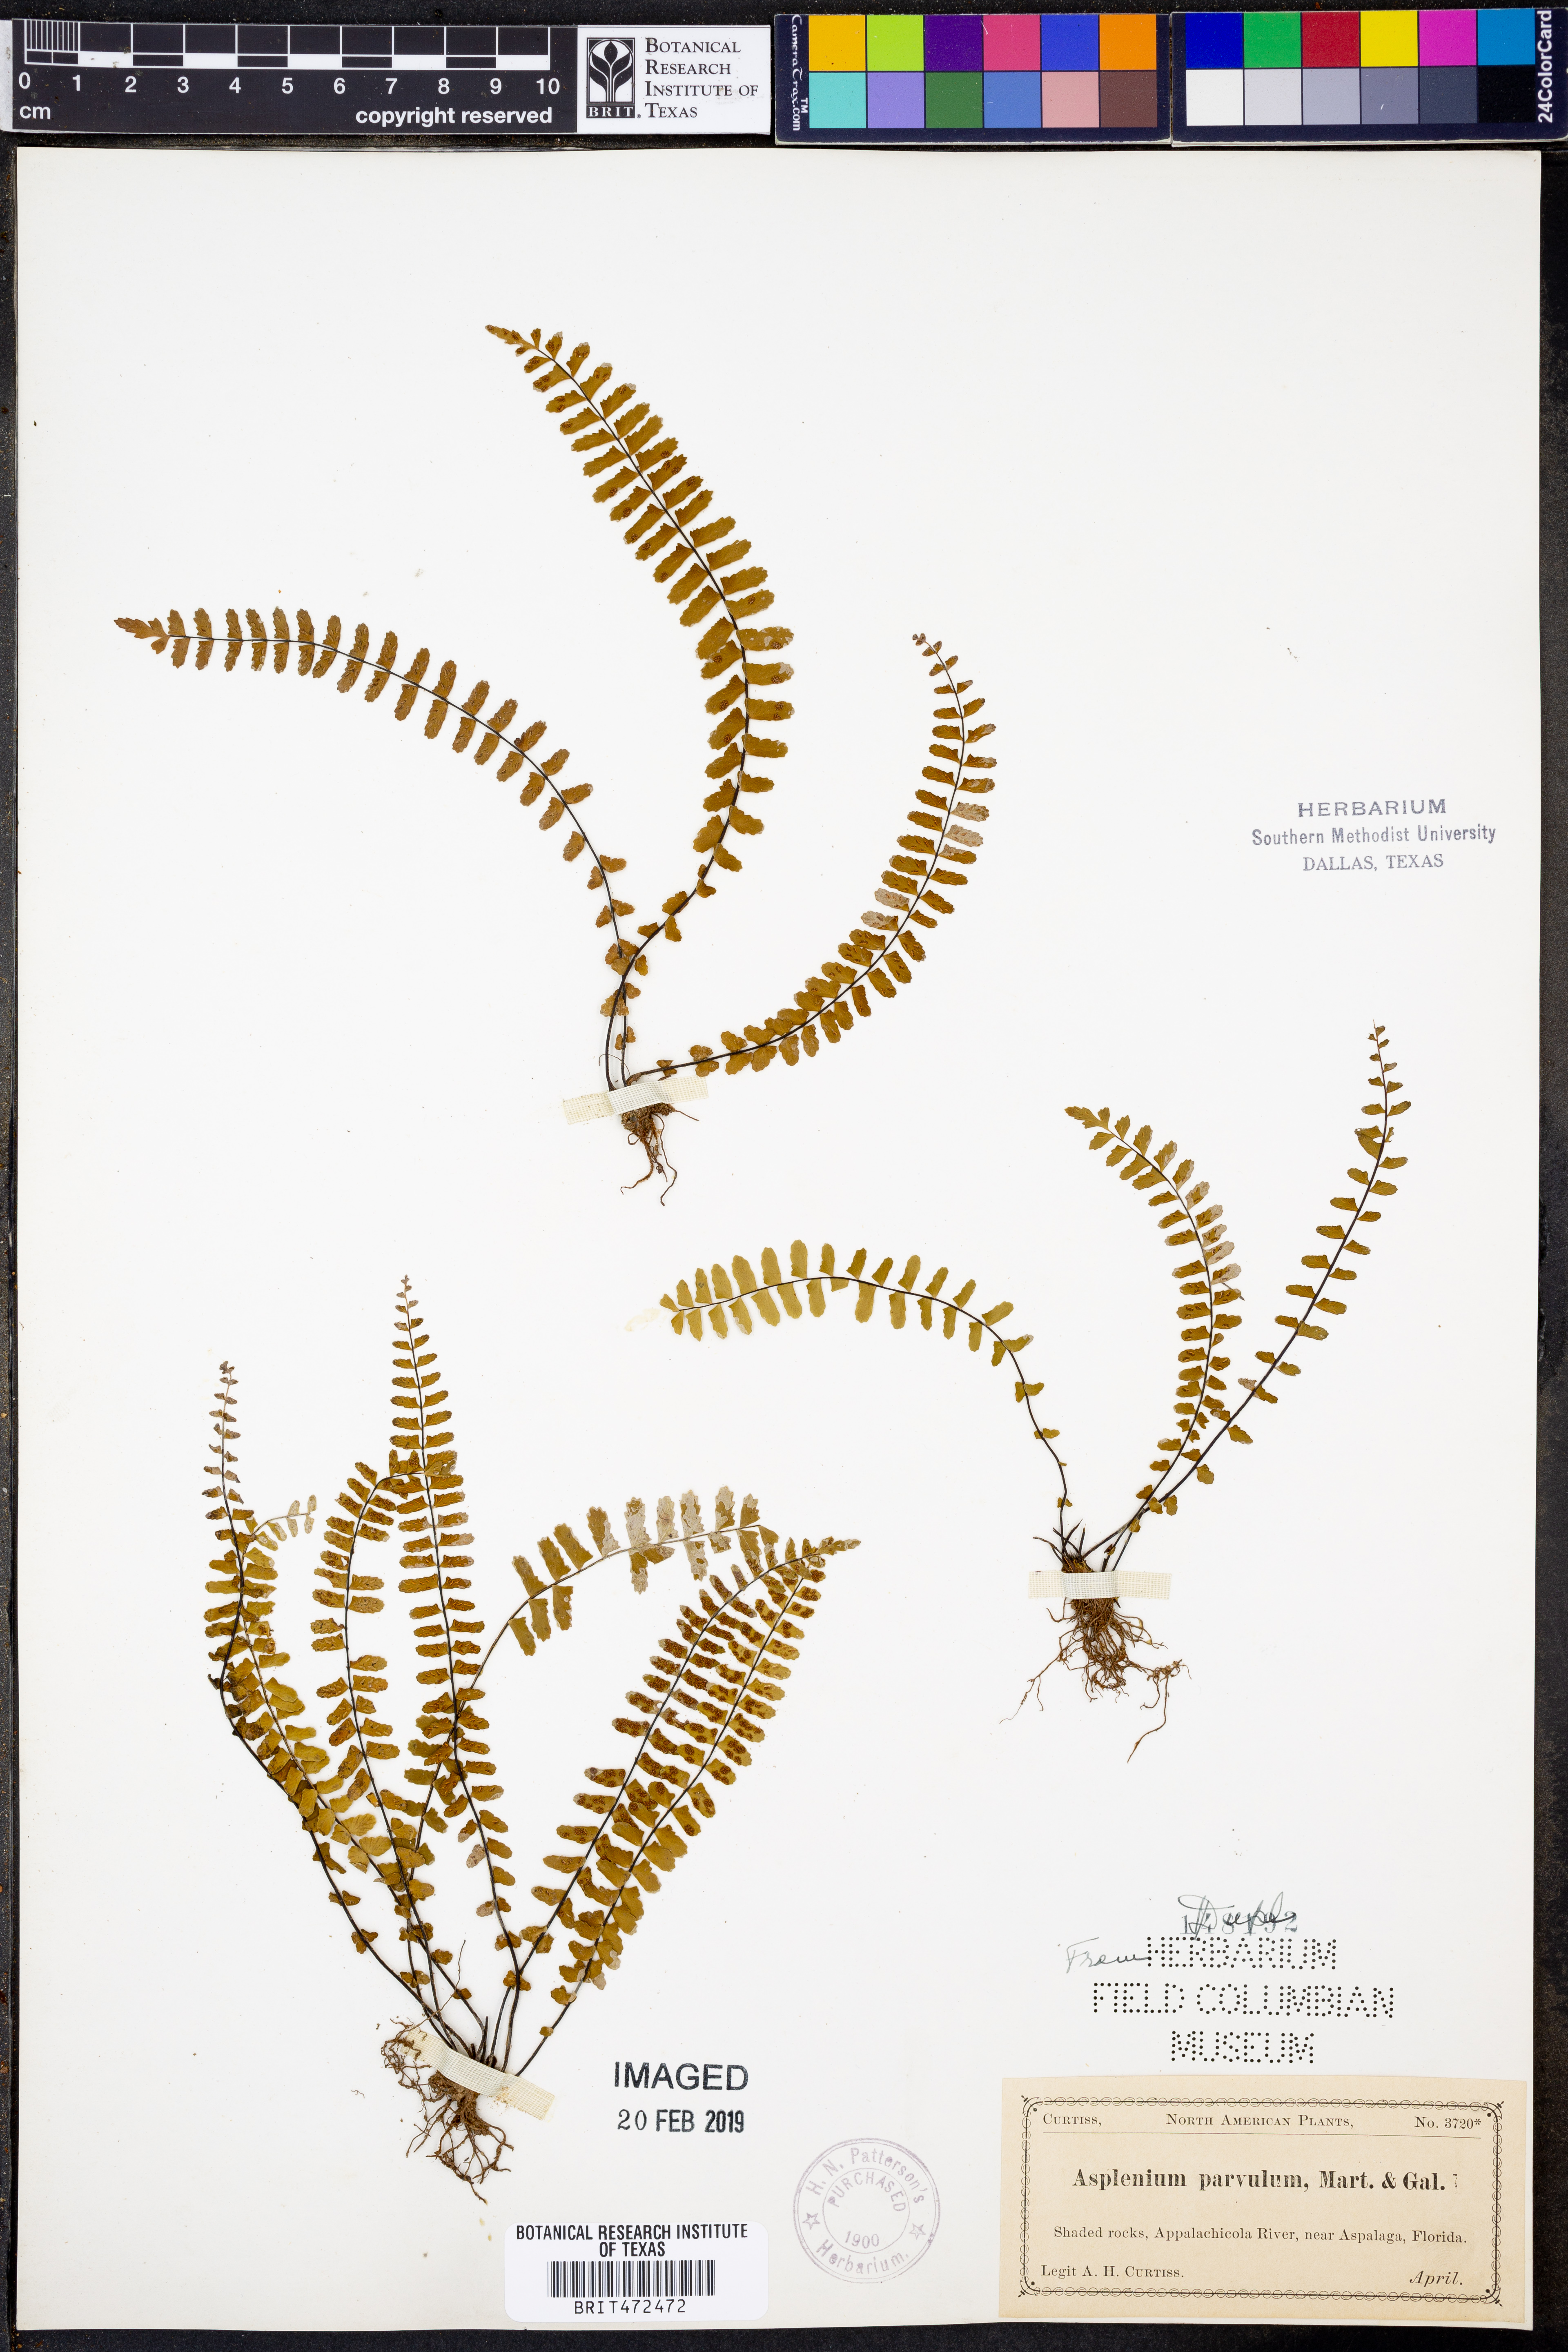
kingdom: Plantae
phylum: Tracheophyta
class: Polypodiopsida
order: Polypodiales
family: Aspleniaceae
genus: Asplenium
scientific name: Asplenium laciniatum
